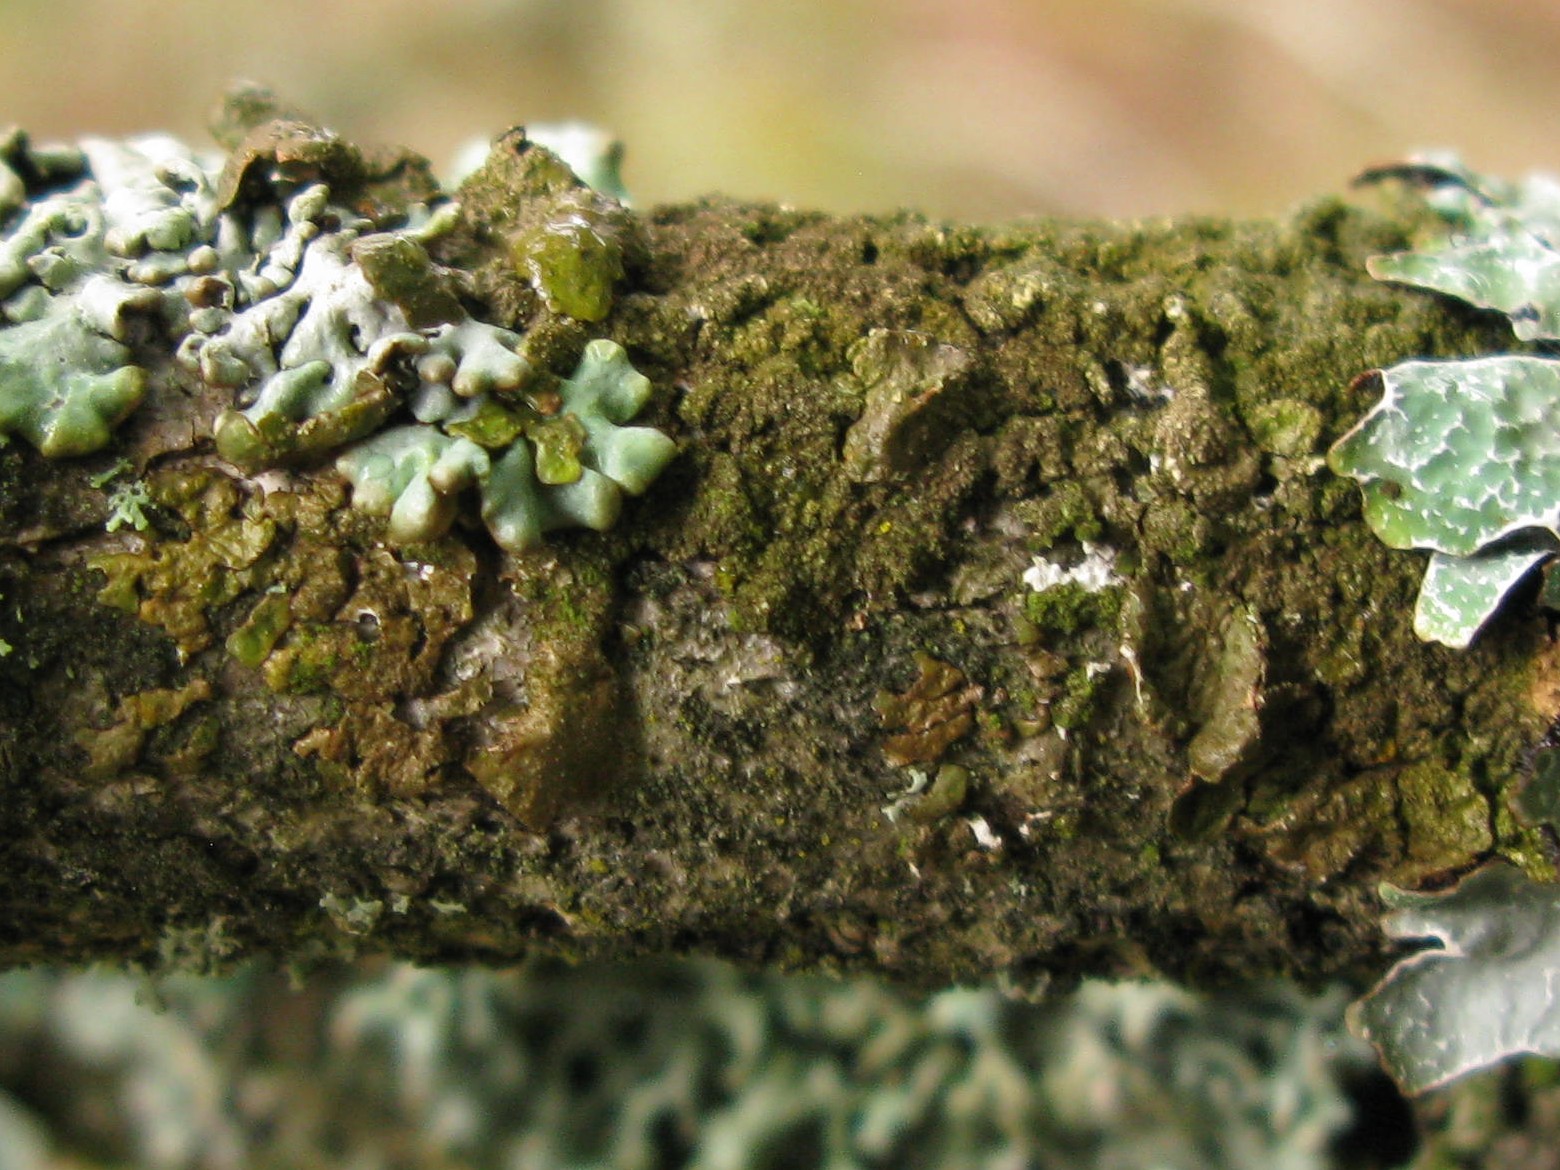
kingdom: Fungi
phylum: Ascomycota
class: Lecanoromycetes
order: Lecanorales
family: Parmeliaceae
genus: Melanelixia
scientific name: Melanelixia subaurifera
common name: guldpudret skållav
